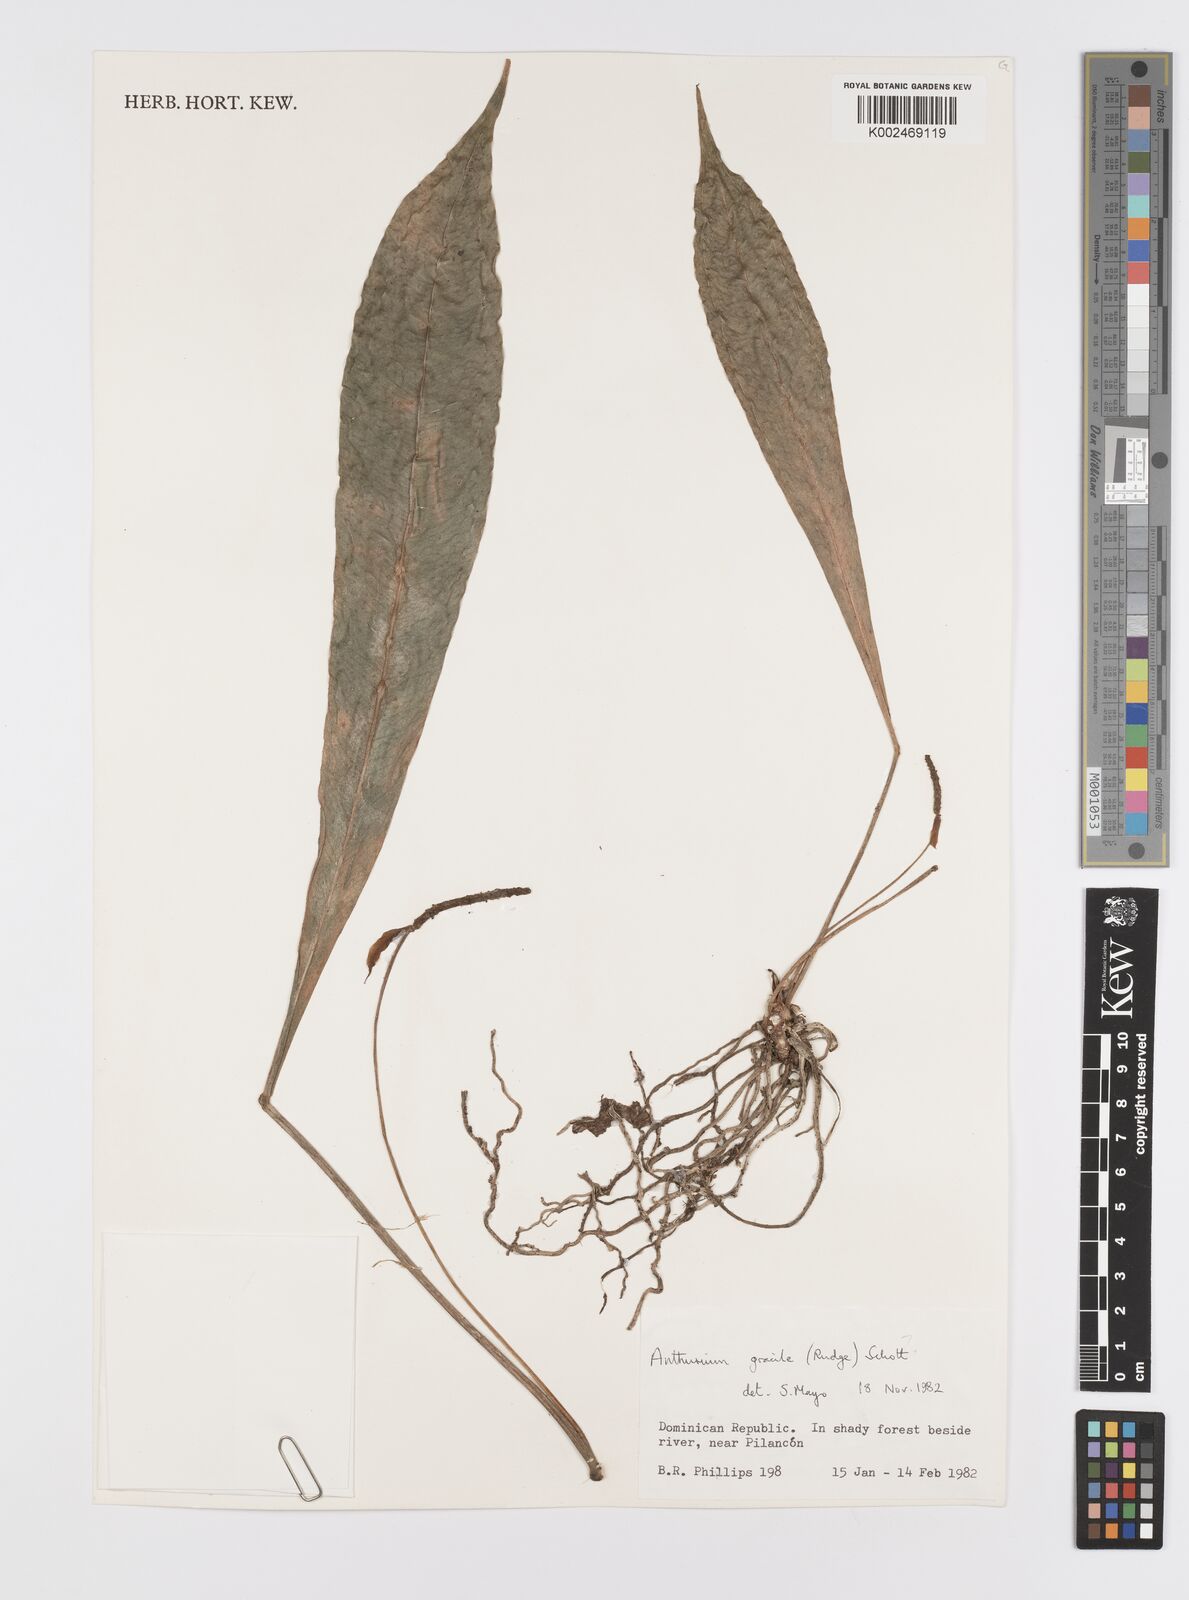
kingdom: Plantae
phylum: Tracheophyta
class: Liliopsida
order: Alismatales
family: Araceae
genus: Anthurium
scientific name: Anthurium gracile
